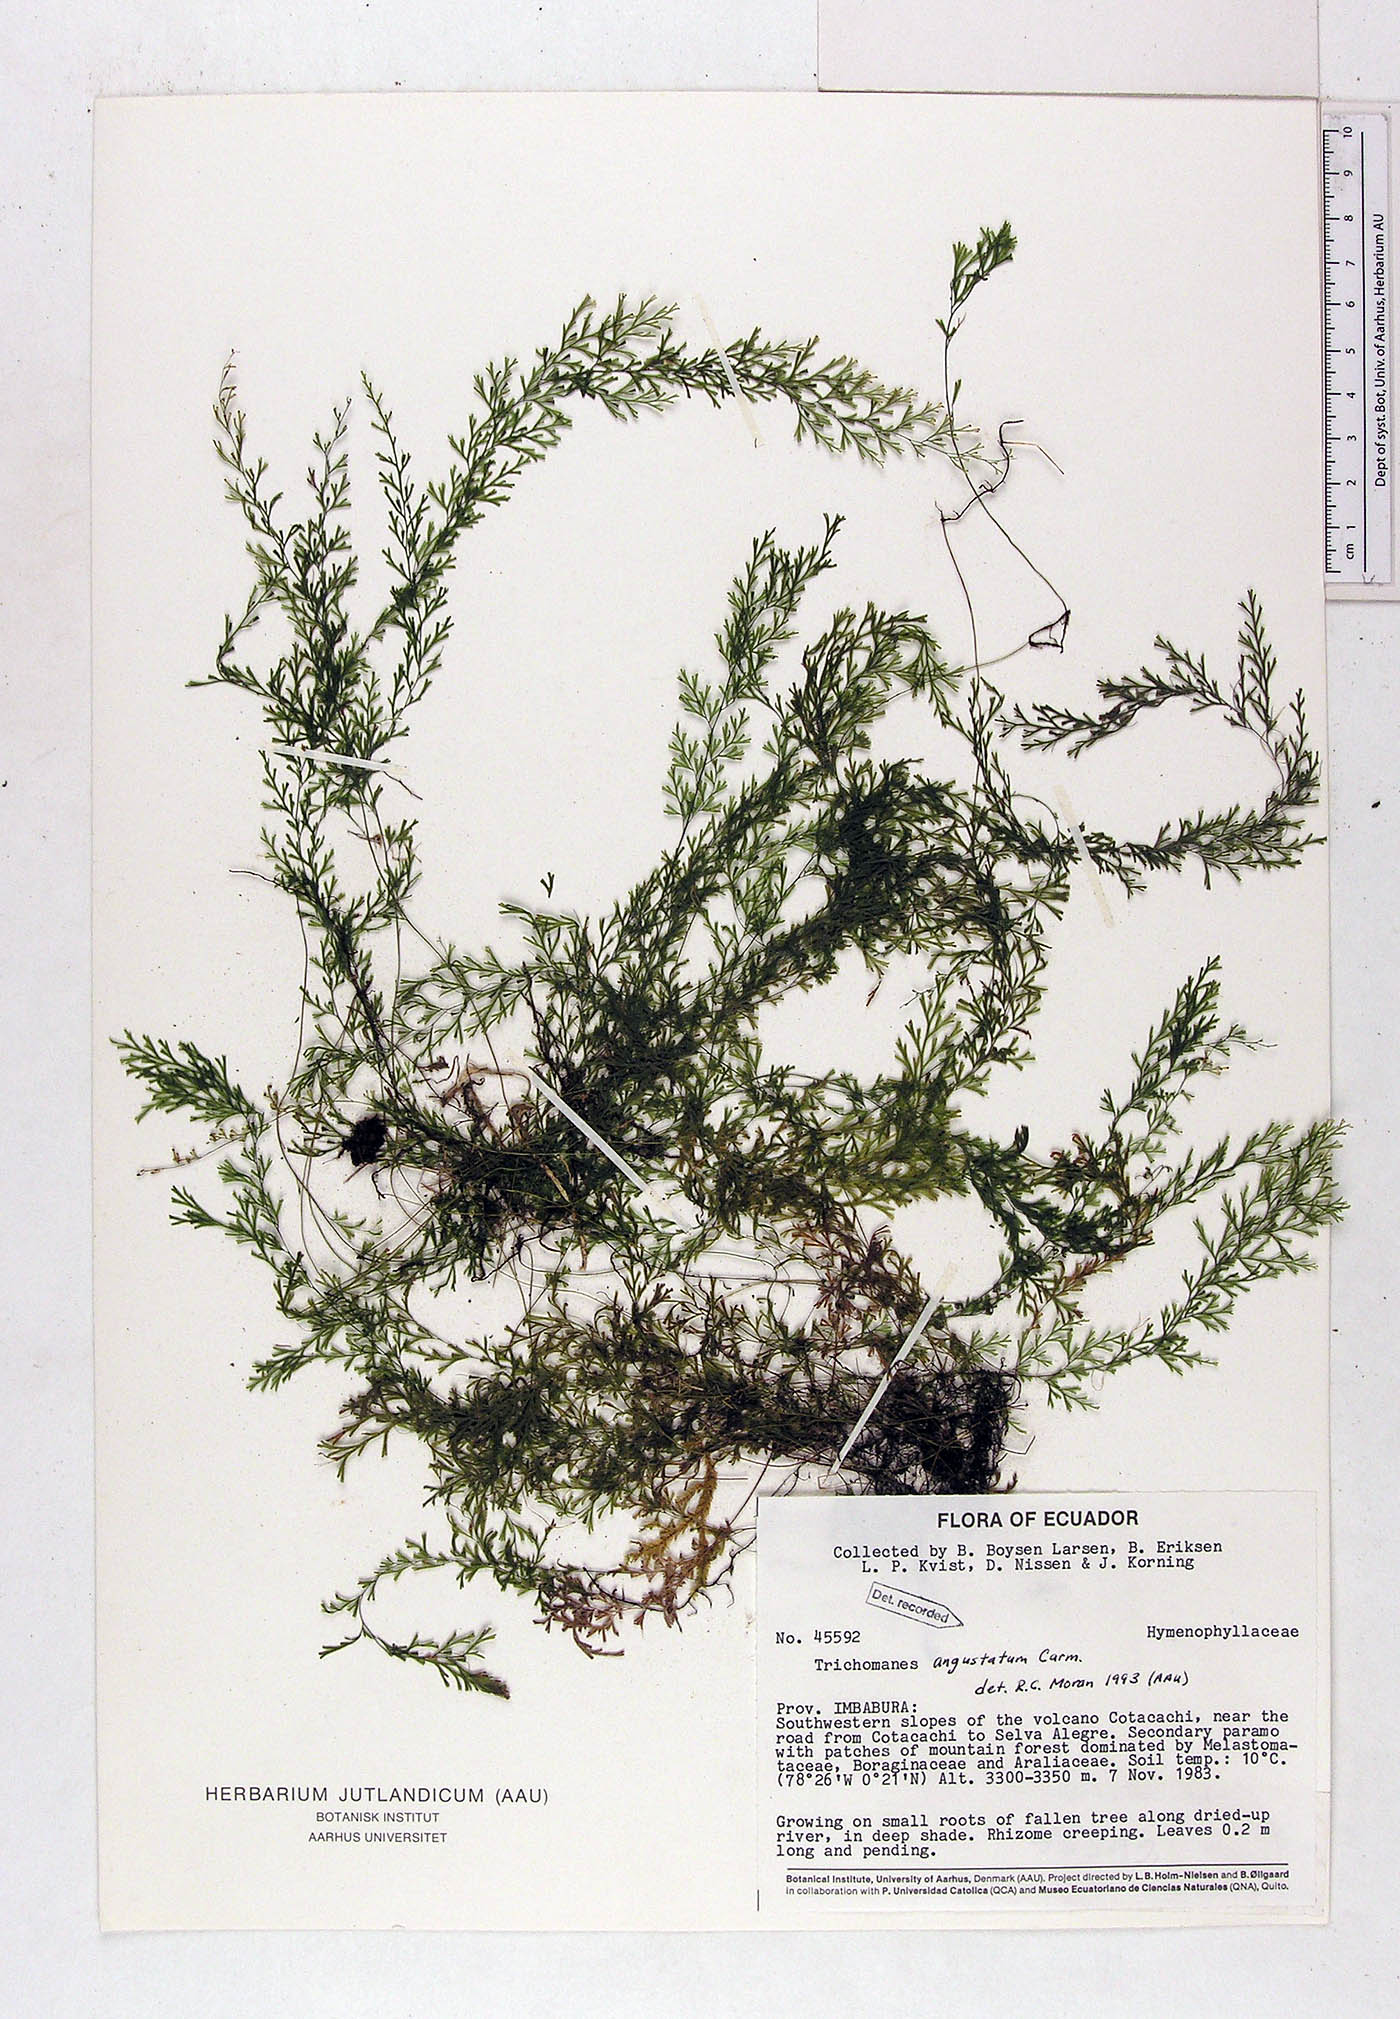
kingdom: Plantae
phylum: Tracheophyta
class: Polypodiopsida
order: Hymenophyllales
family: Hymenophyllaceae
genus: Polyphlebium
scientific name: Polyphlebium angustatum
